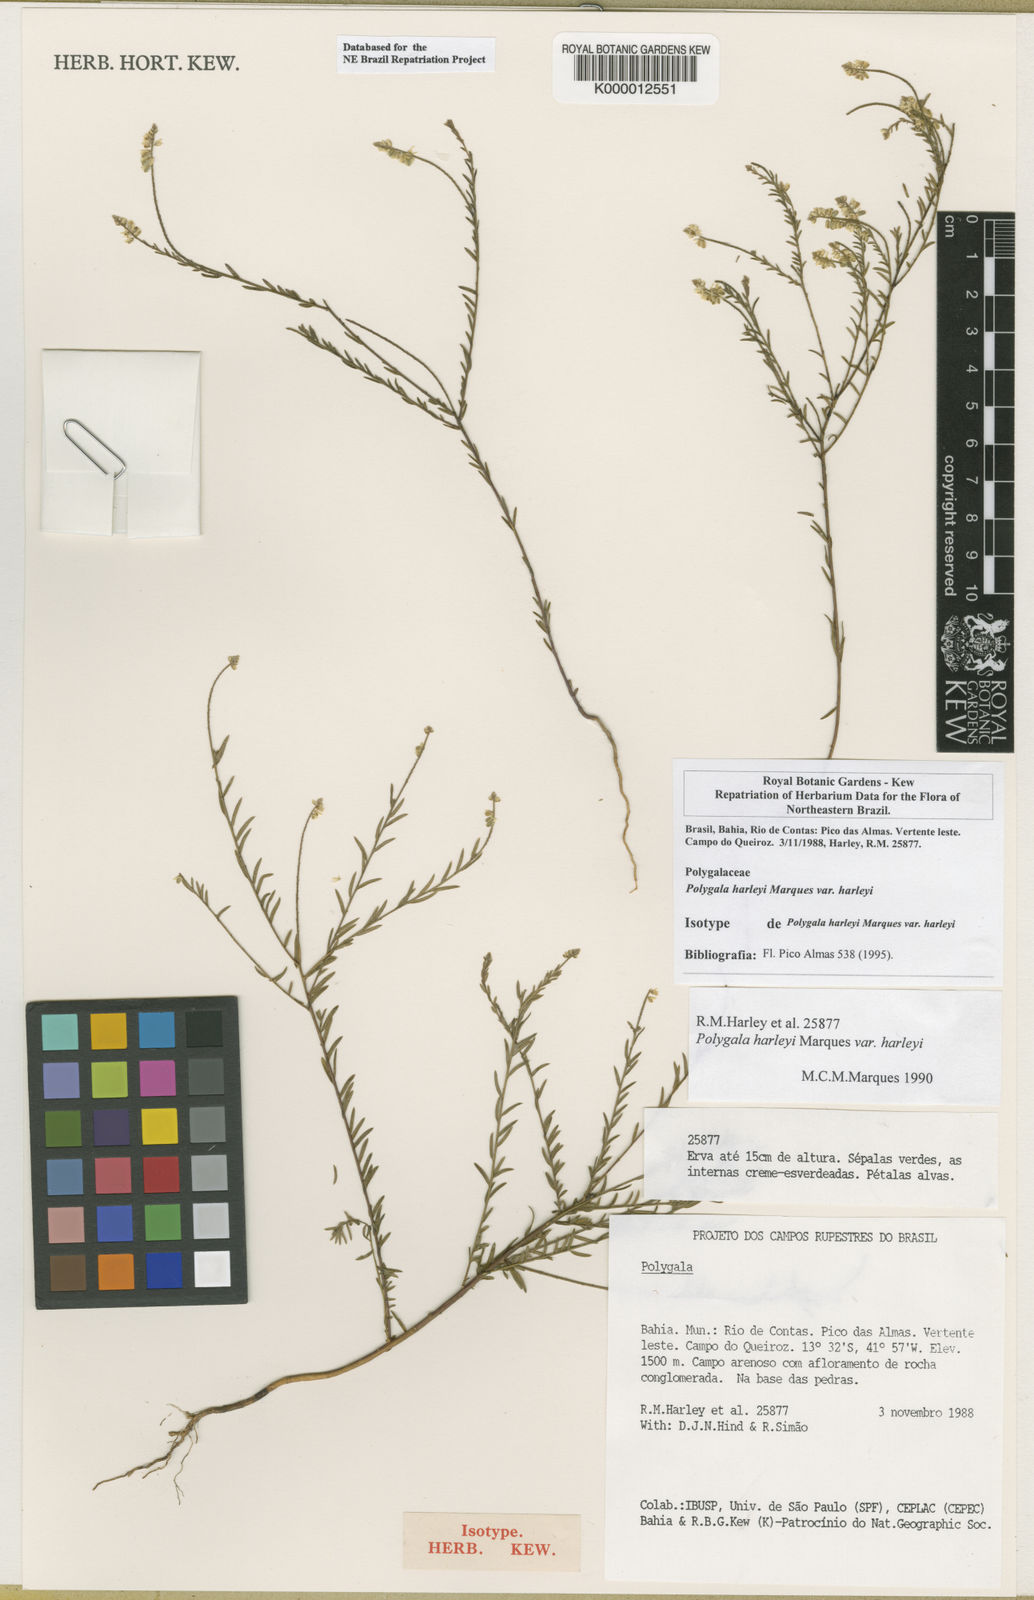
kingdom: Plantae
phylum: Tracheophyta
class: Magnoliopsida
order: Fabales
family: Polygalaceae
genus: Polygala
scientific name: Polygala
